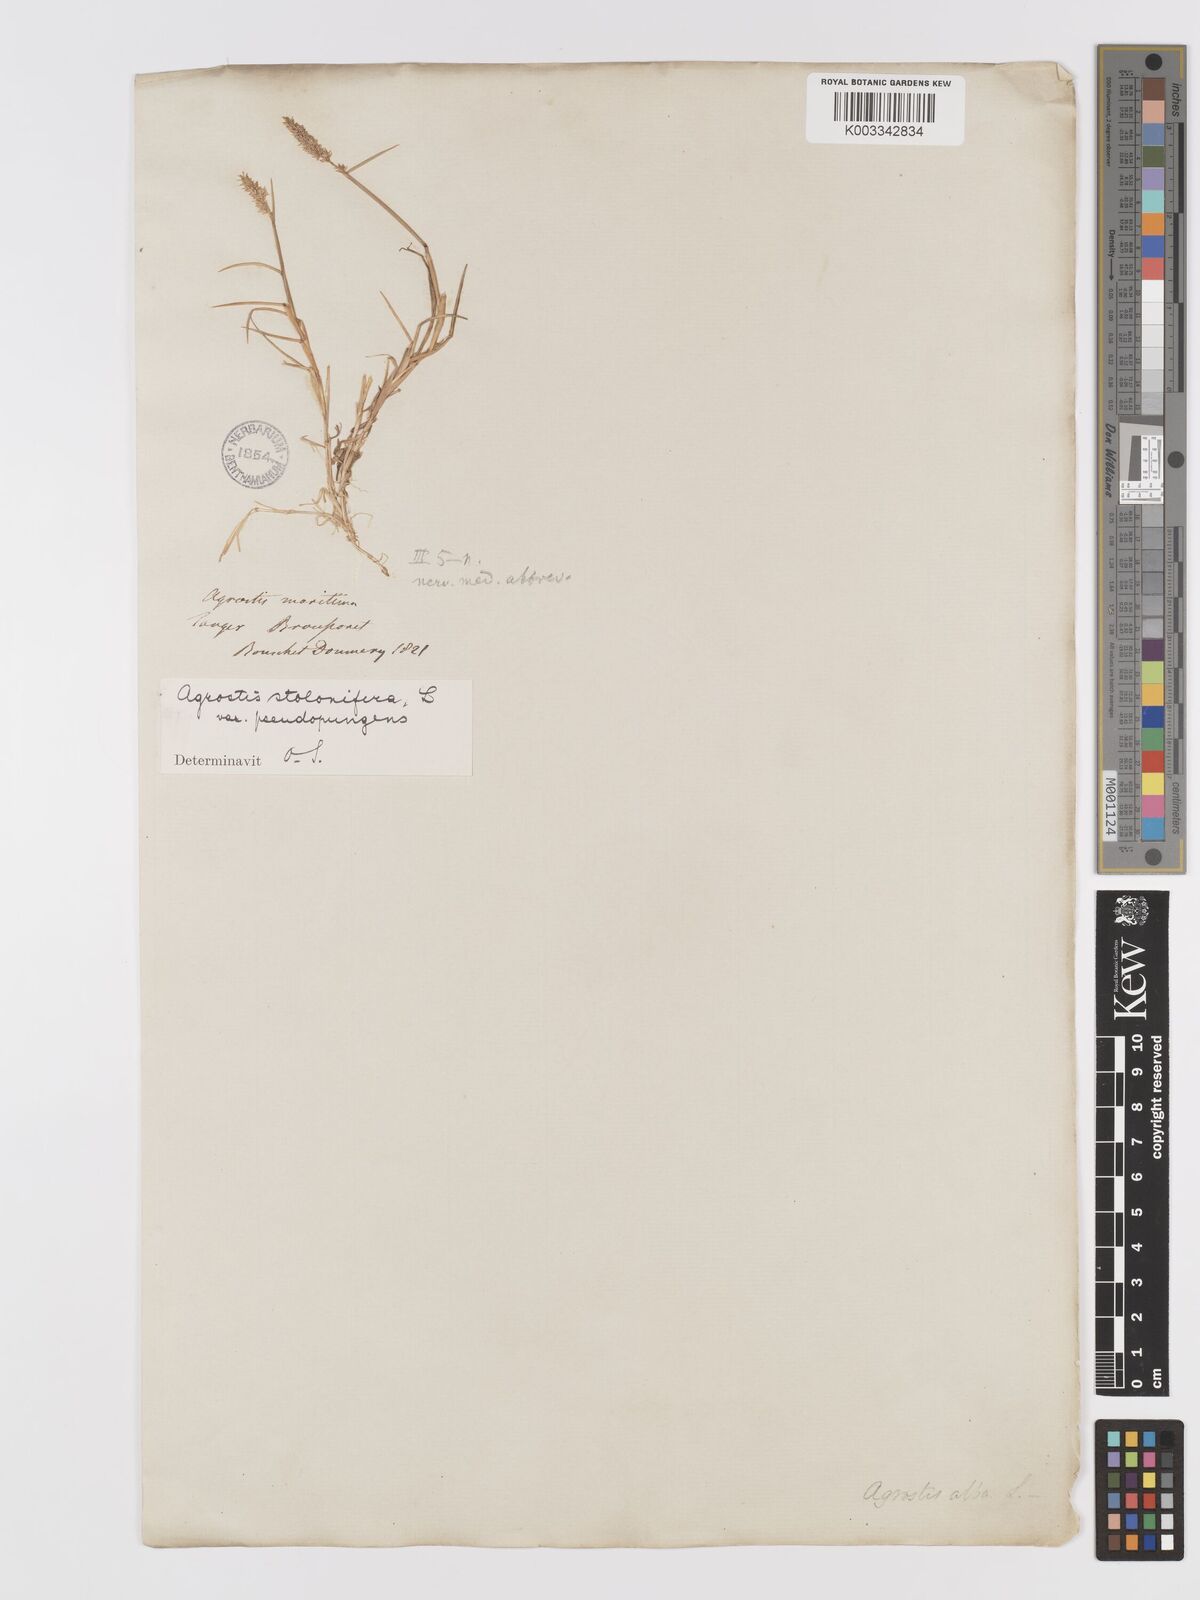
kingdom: Plantae
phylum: Tracheophyta
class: Liliopsida
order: Poales
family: Poaceae
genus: Agrostis
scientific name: Agrostis stolonifera
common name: Creeping bentgrass
